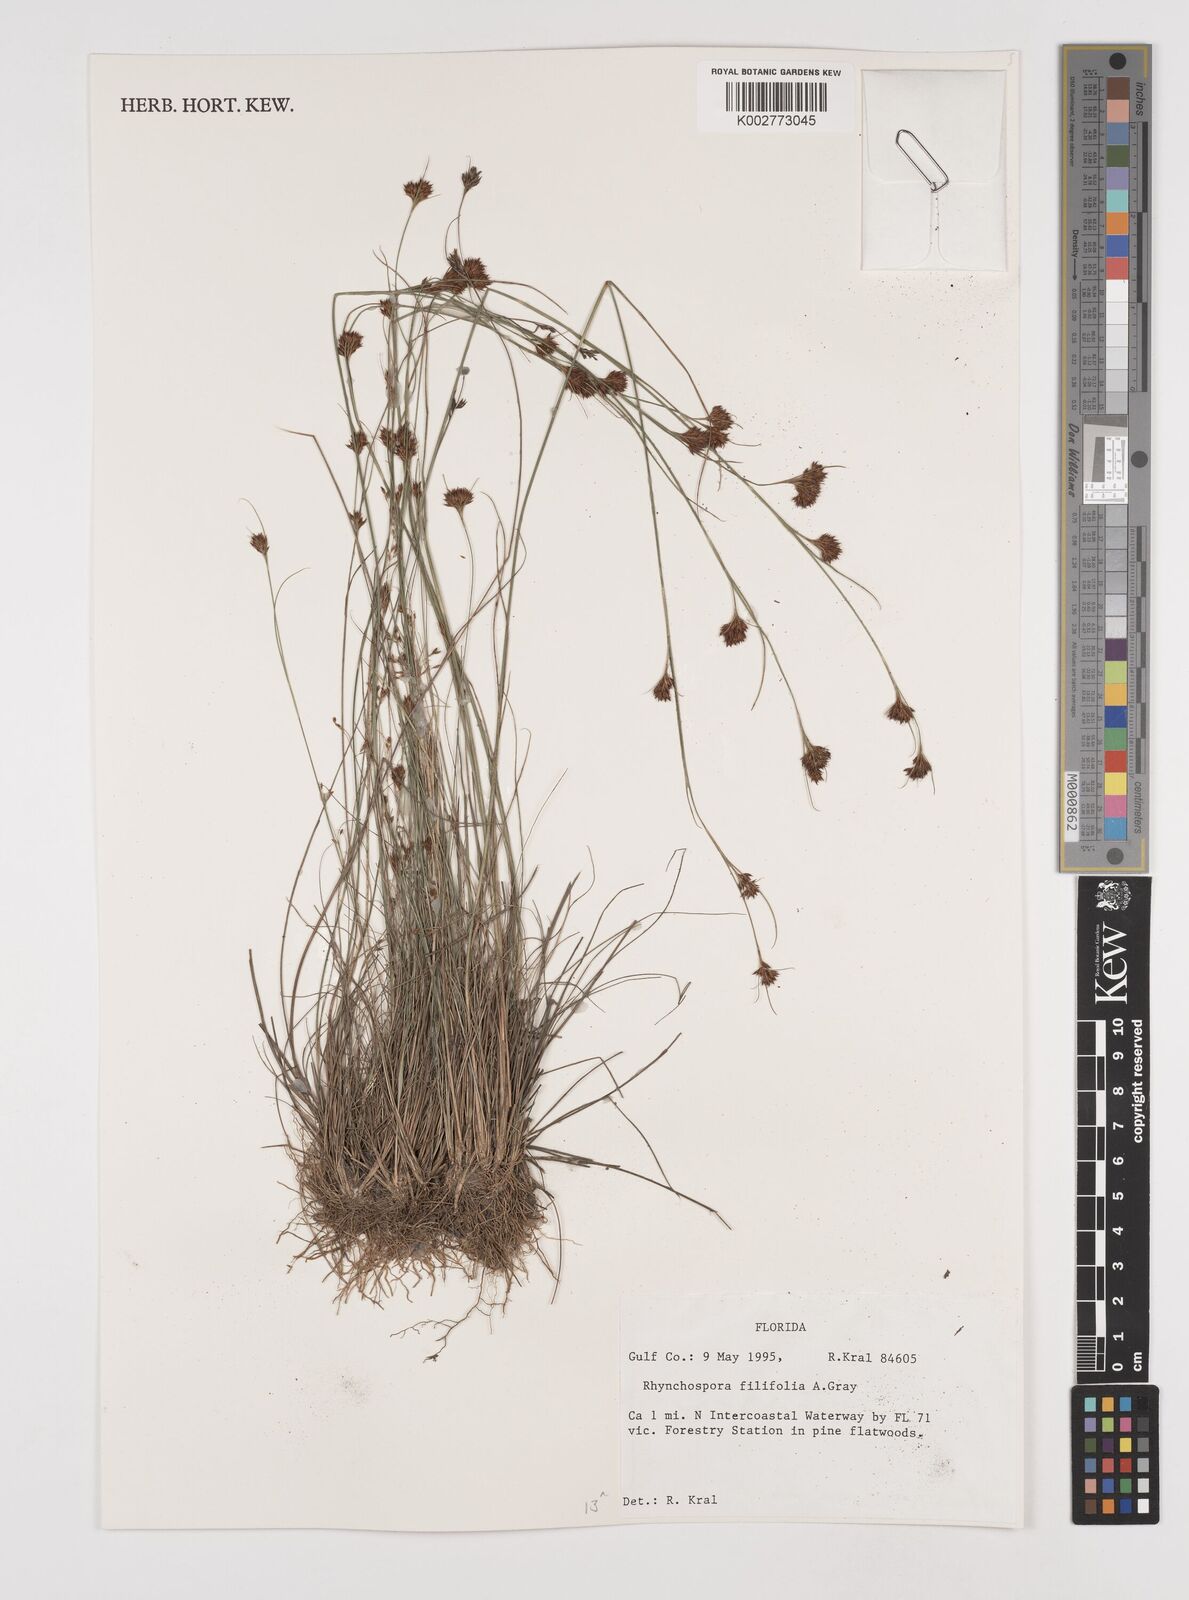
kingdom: Plantae
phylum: Tracheophyta
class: Liliopsida
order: Poales
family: Cyperaceae
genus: Rhynchospora
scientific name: Rhynchospora filifolia
